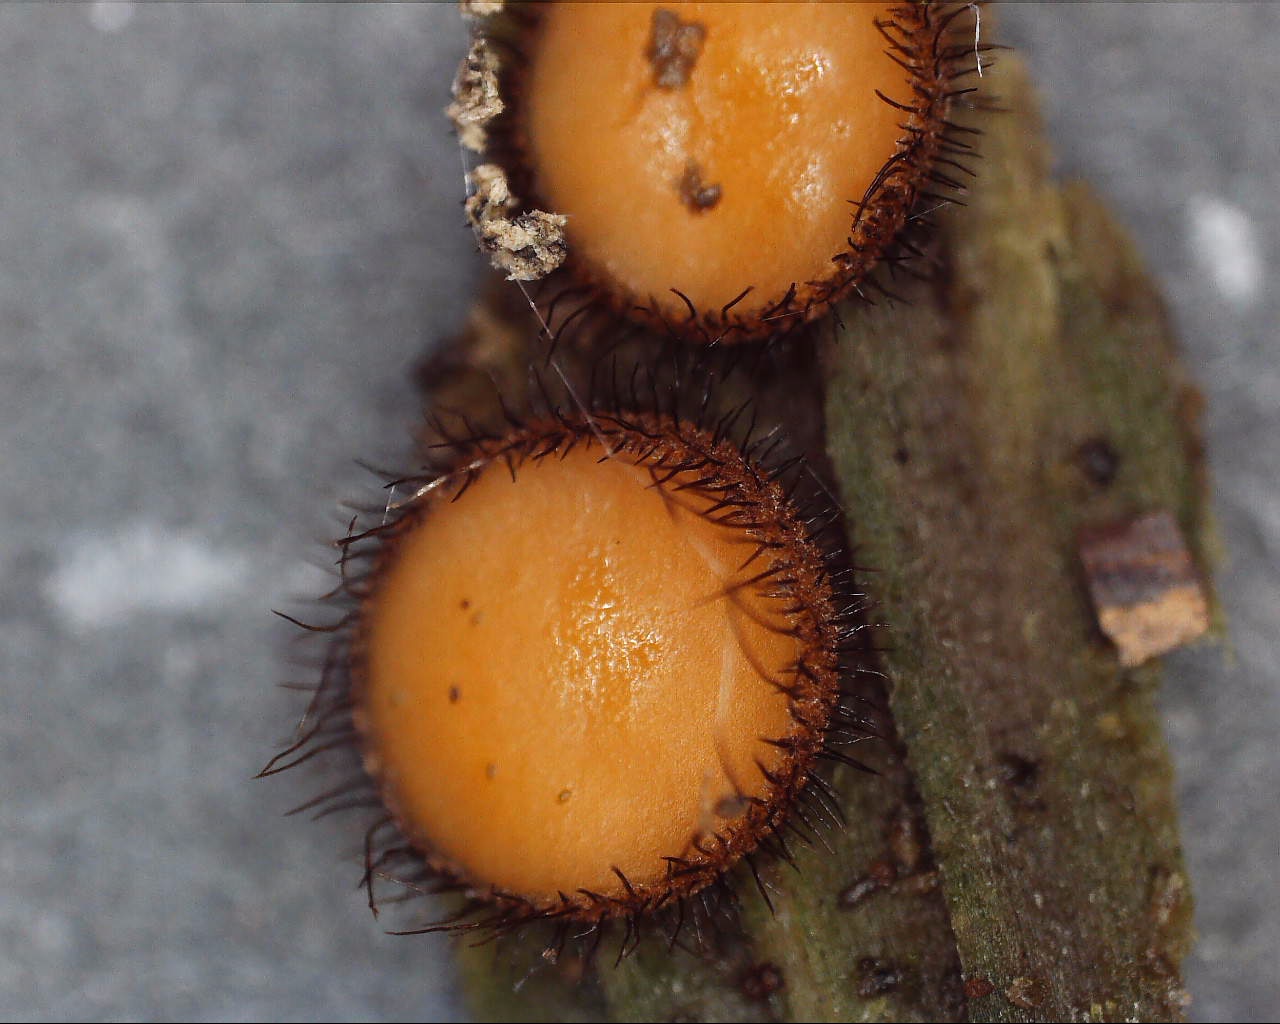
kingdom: Fungi
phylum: Ascomycota
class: Pezizomycetes
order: Pezizales
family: Pyronemataceae
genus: Scutellinia
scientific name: Scutellinia
